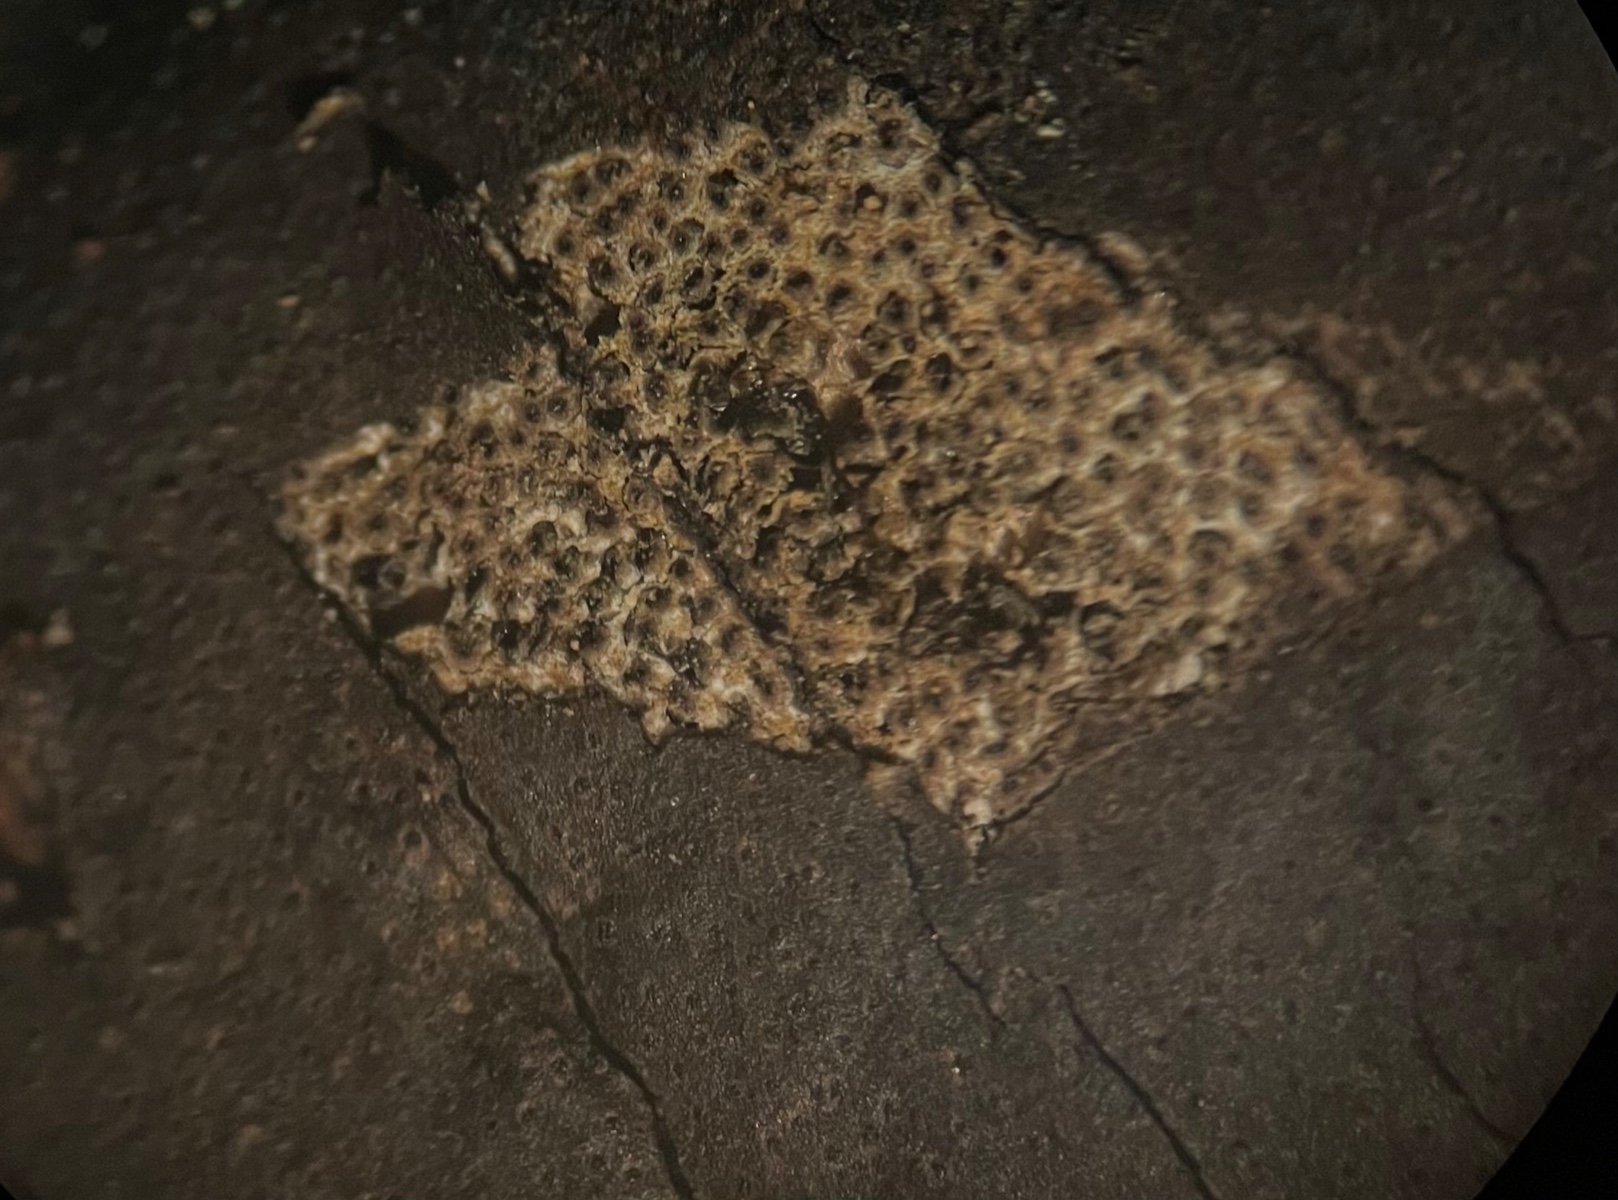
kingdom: Fungi
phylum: Ascomycota
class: Sordariomycetes
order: Xylariales
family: Diatrypaceae
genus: Diatrype
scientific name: Diatrype decorticata
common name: barksprænger-kulskorpe
